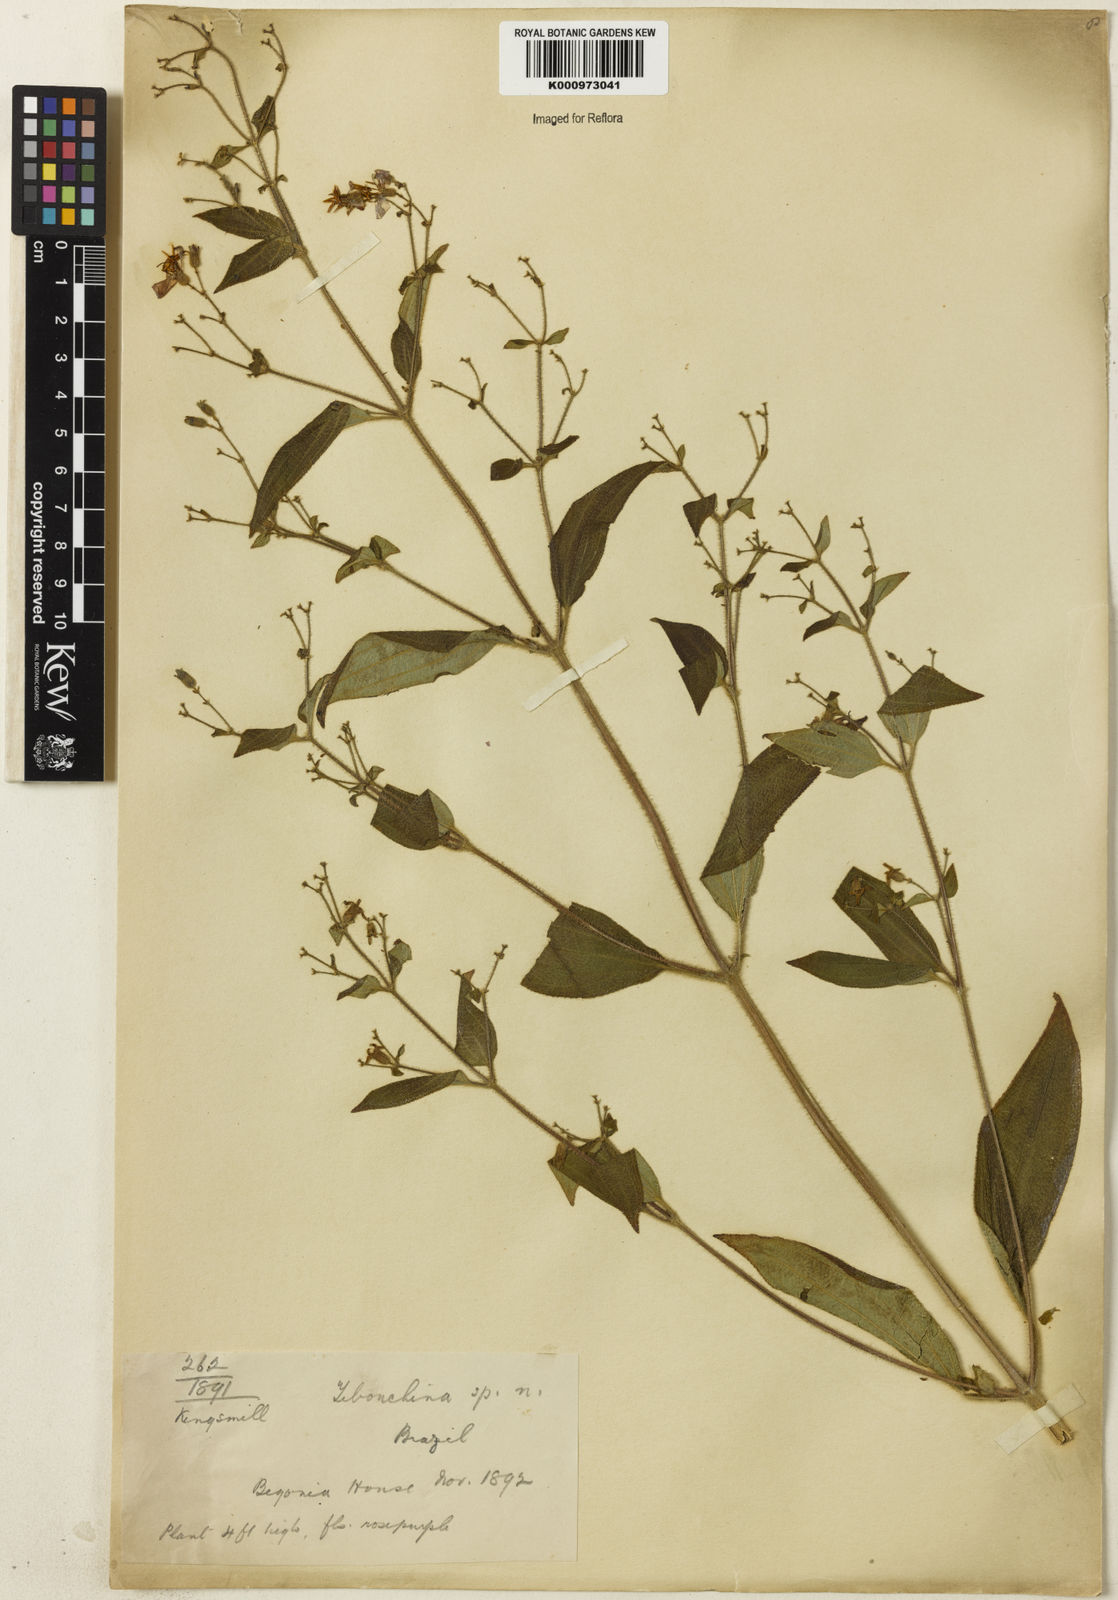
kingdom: Plantae
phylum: Tracheophyta
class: Magnoliopsida
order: Myrtales
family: Melastomataceae
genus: Tibouchina
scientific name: Tibouchina
